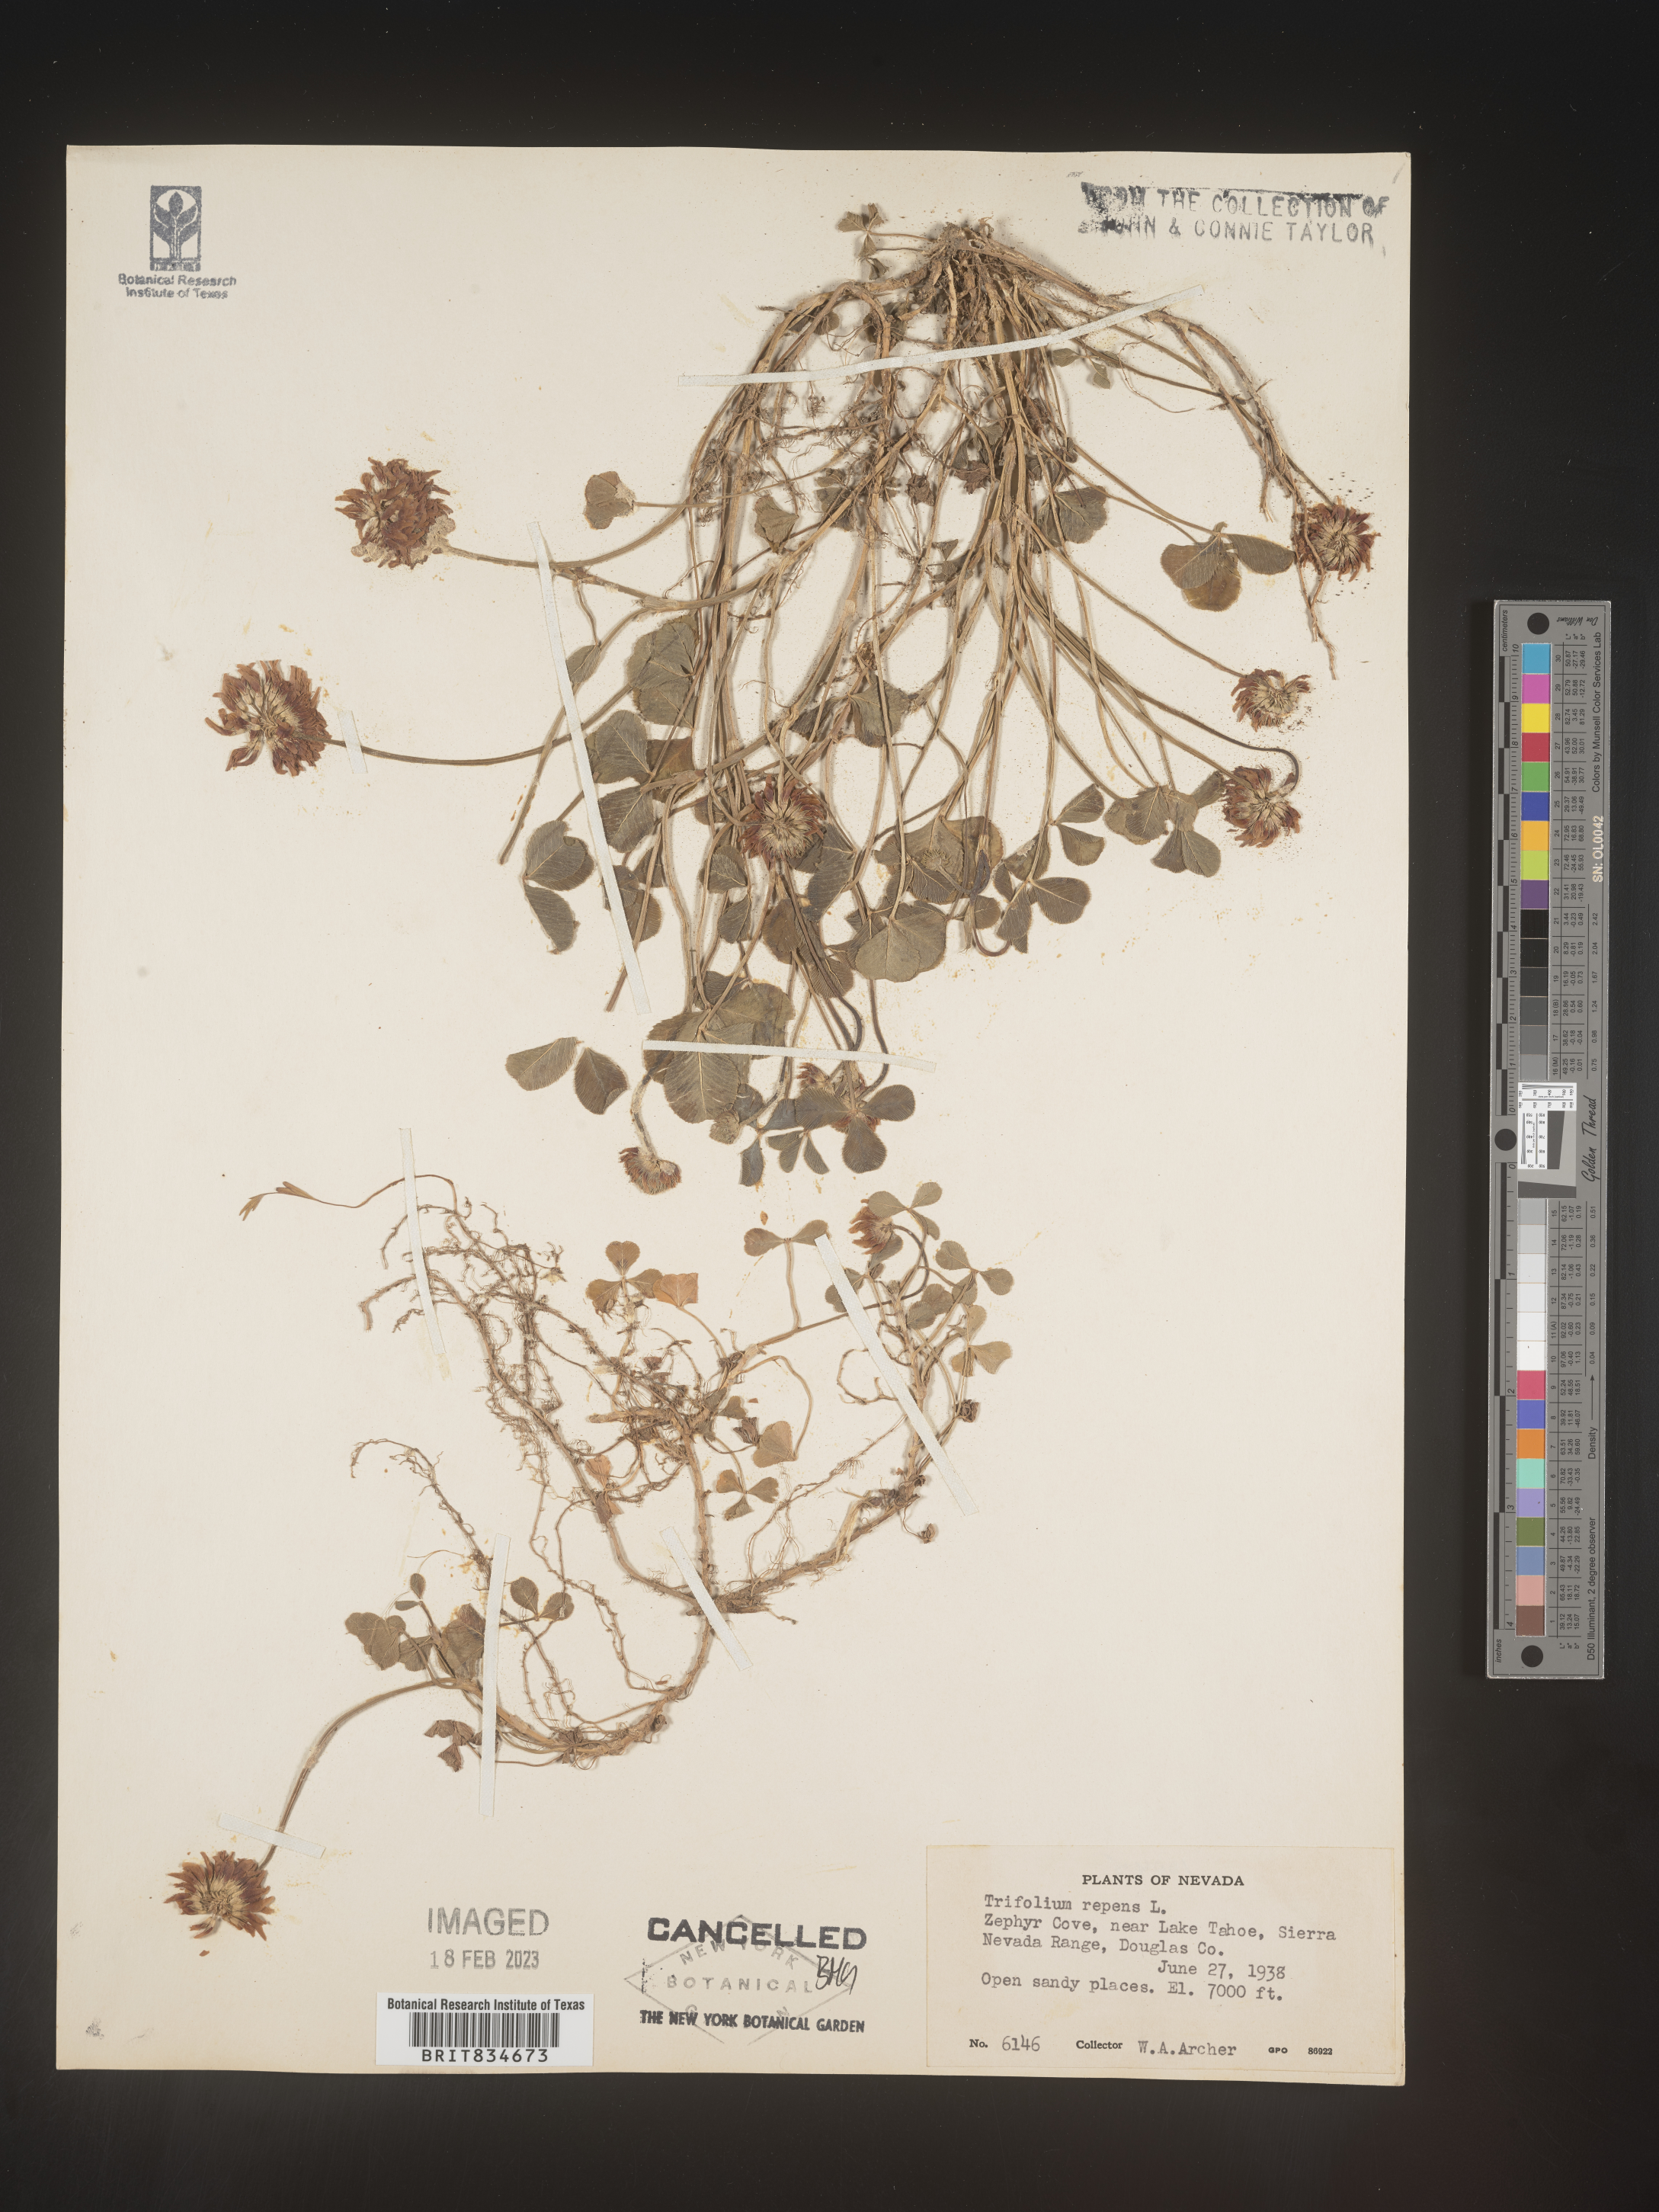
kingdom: Plantae
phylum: Tracheophyta
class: Magnoliopsida
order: Fabales
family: Fabaceae
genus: Trifolium
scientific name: Trifolium repens
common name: White clover
